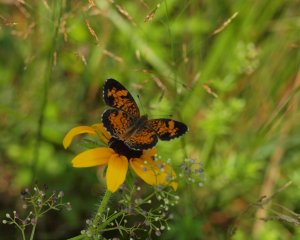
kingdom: Animalia
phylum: Arthropoda
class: Insecta
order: Lepidoptera
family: Nymphalidae
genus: Phyciodes
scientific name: Phyciodes tharos
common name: Pearl Crescent
